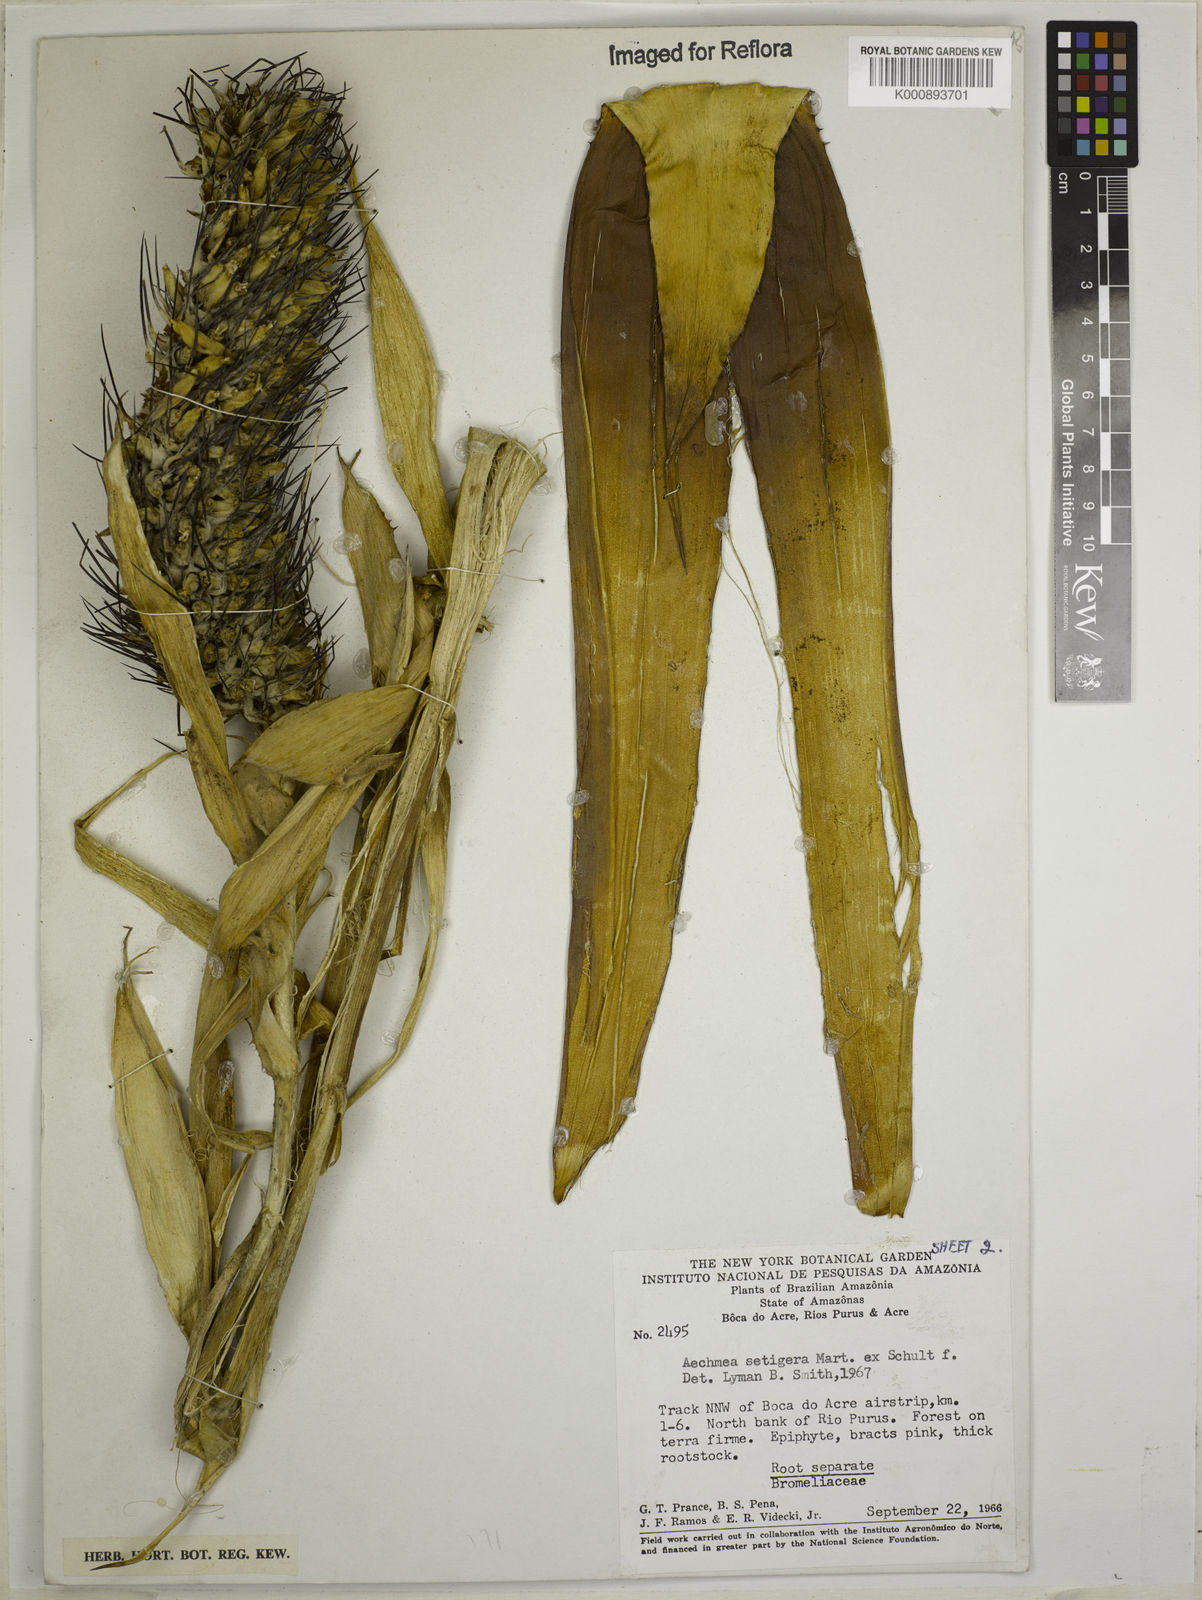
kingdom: Plantae
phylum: Tracheophyta
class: Liliopsida
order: Poales
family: Bromeliaceae
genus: Aechmea
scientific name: Aechmea setigera
